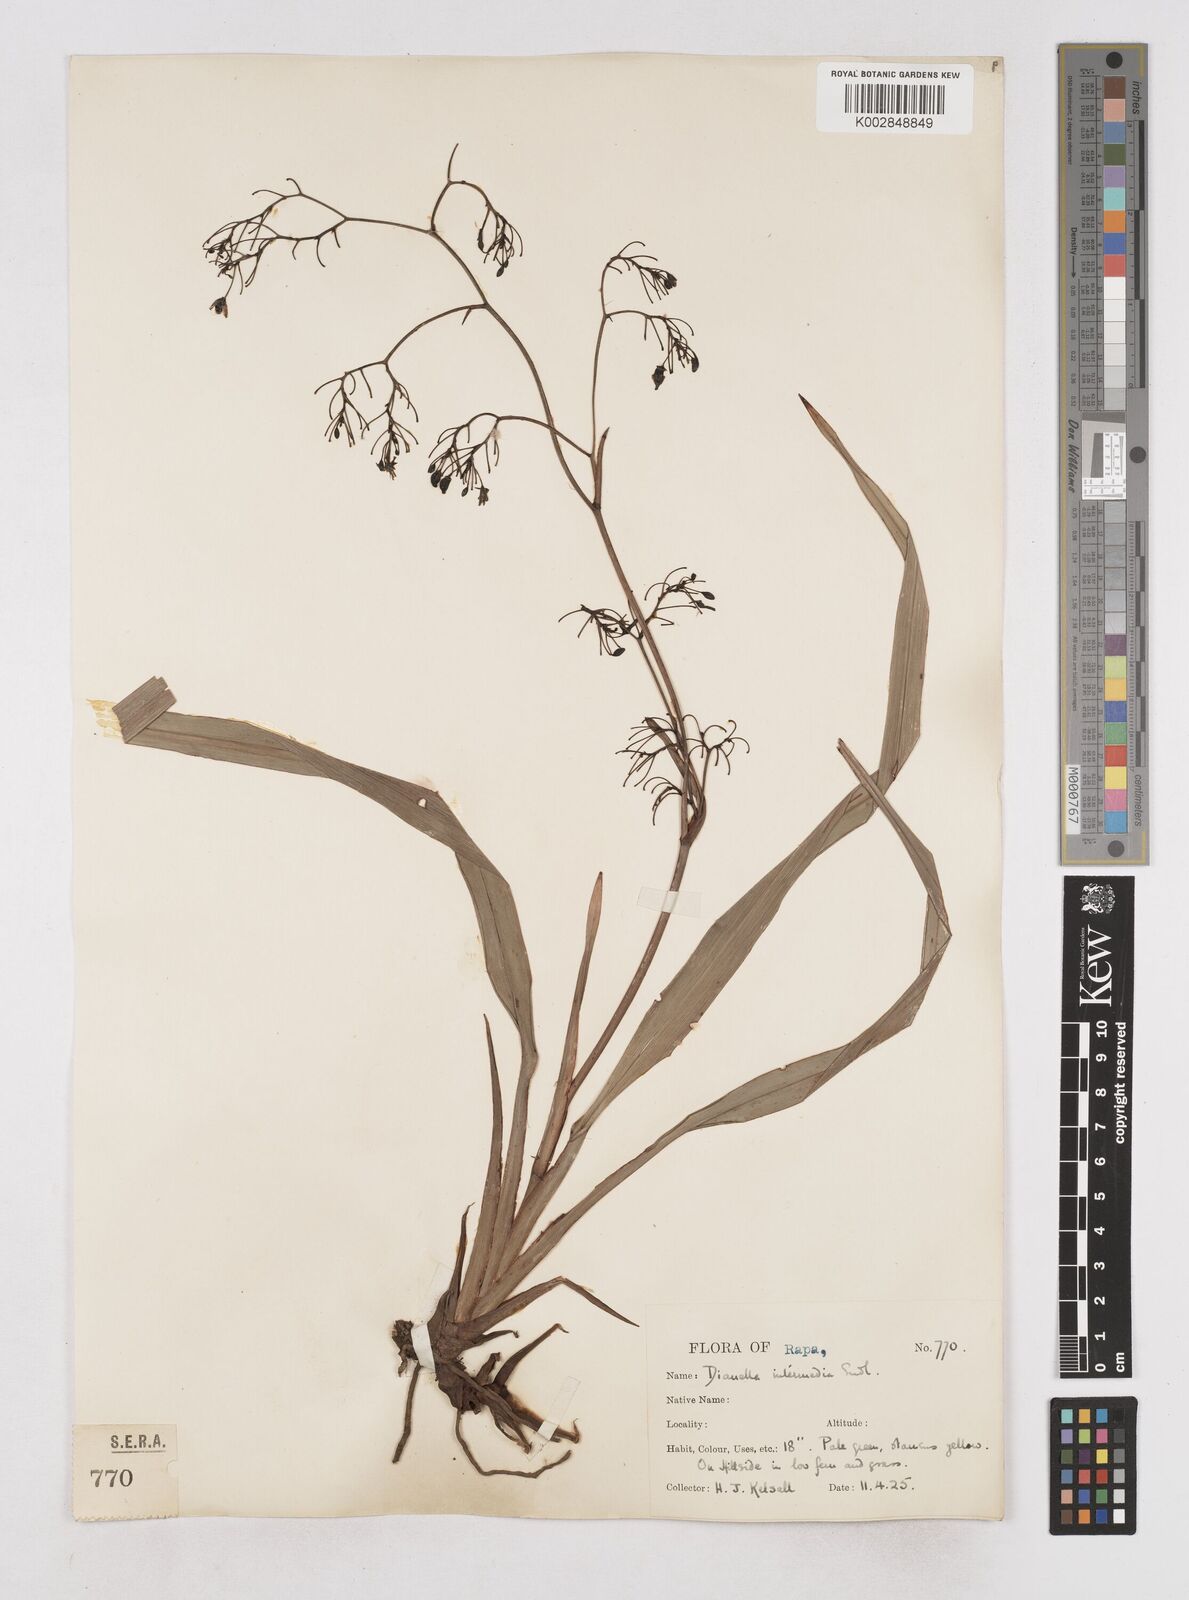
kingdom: Plantae
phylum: Tracheophyta
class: Liliopsida
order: Asparagales
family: Asphodelaceae
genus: Dianella
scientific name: Dianella acutifolia
